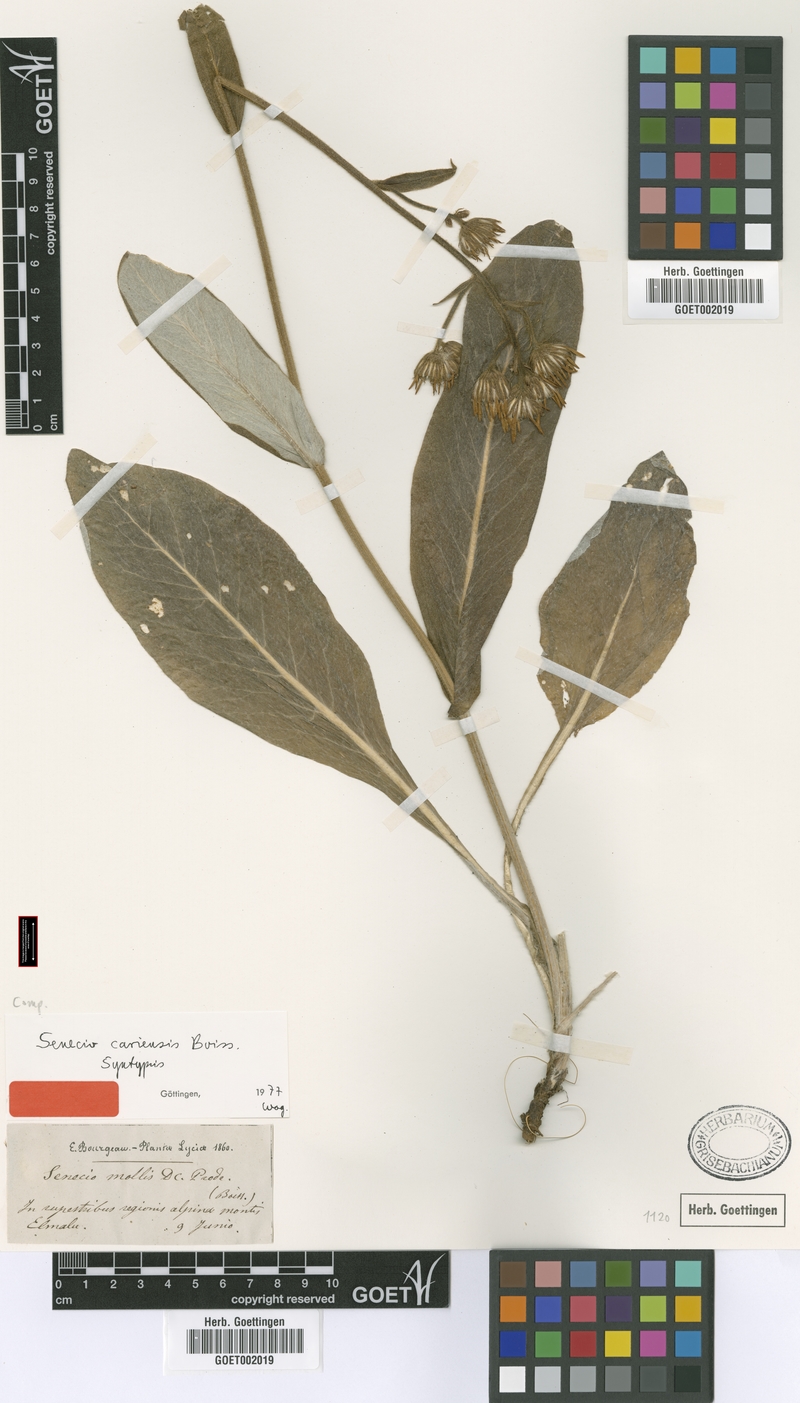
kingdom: Plantae
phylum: Tracheophyta
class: Magnoliopsida
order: Asterales
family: Asteraceae
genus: Turanecio
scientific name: Turanecio cariensis
